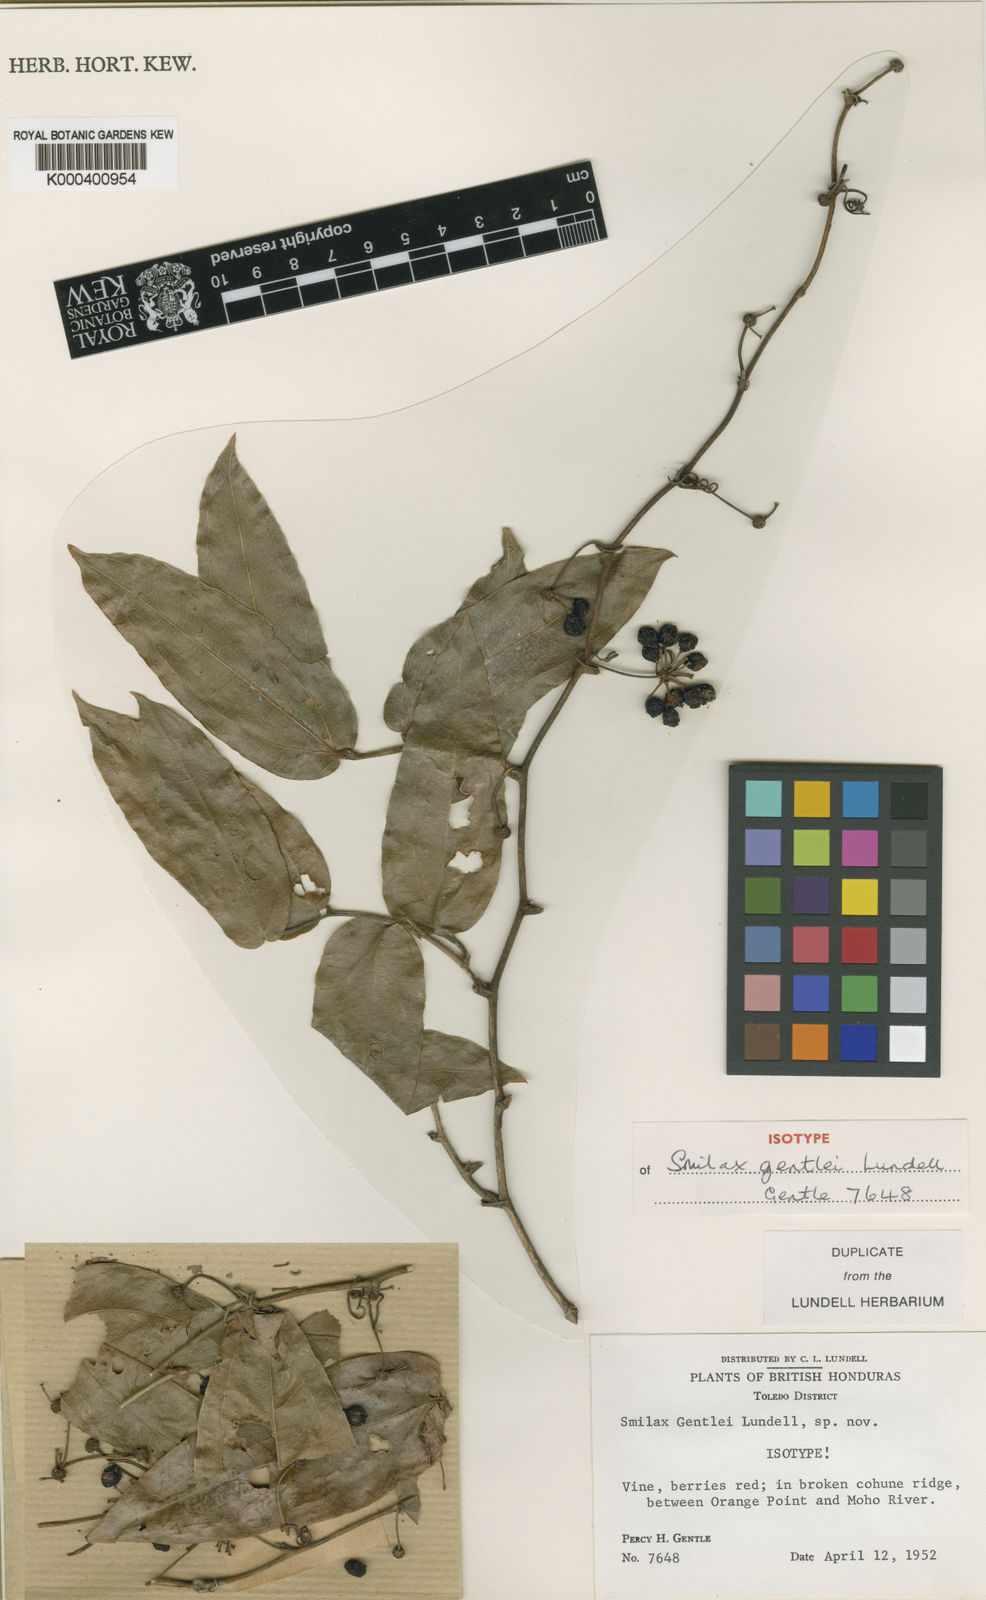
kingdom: Plantae
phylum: Tracheophyta
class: Liliopsida
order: Liliales
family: Smilacaceae
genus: Smilax
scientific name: Smilax mollis
